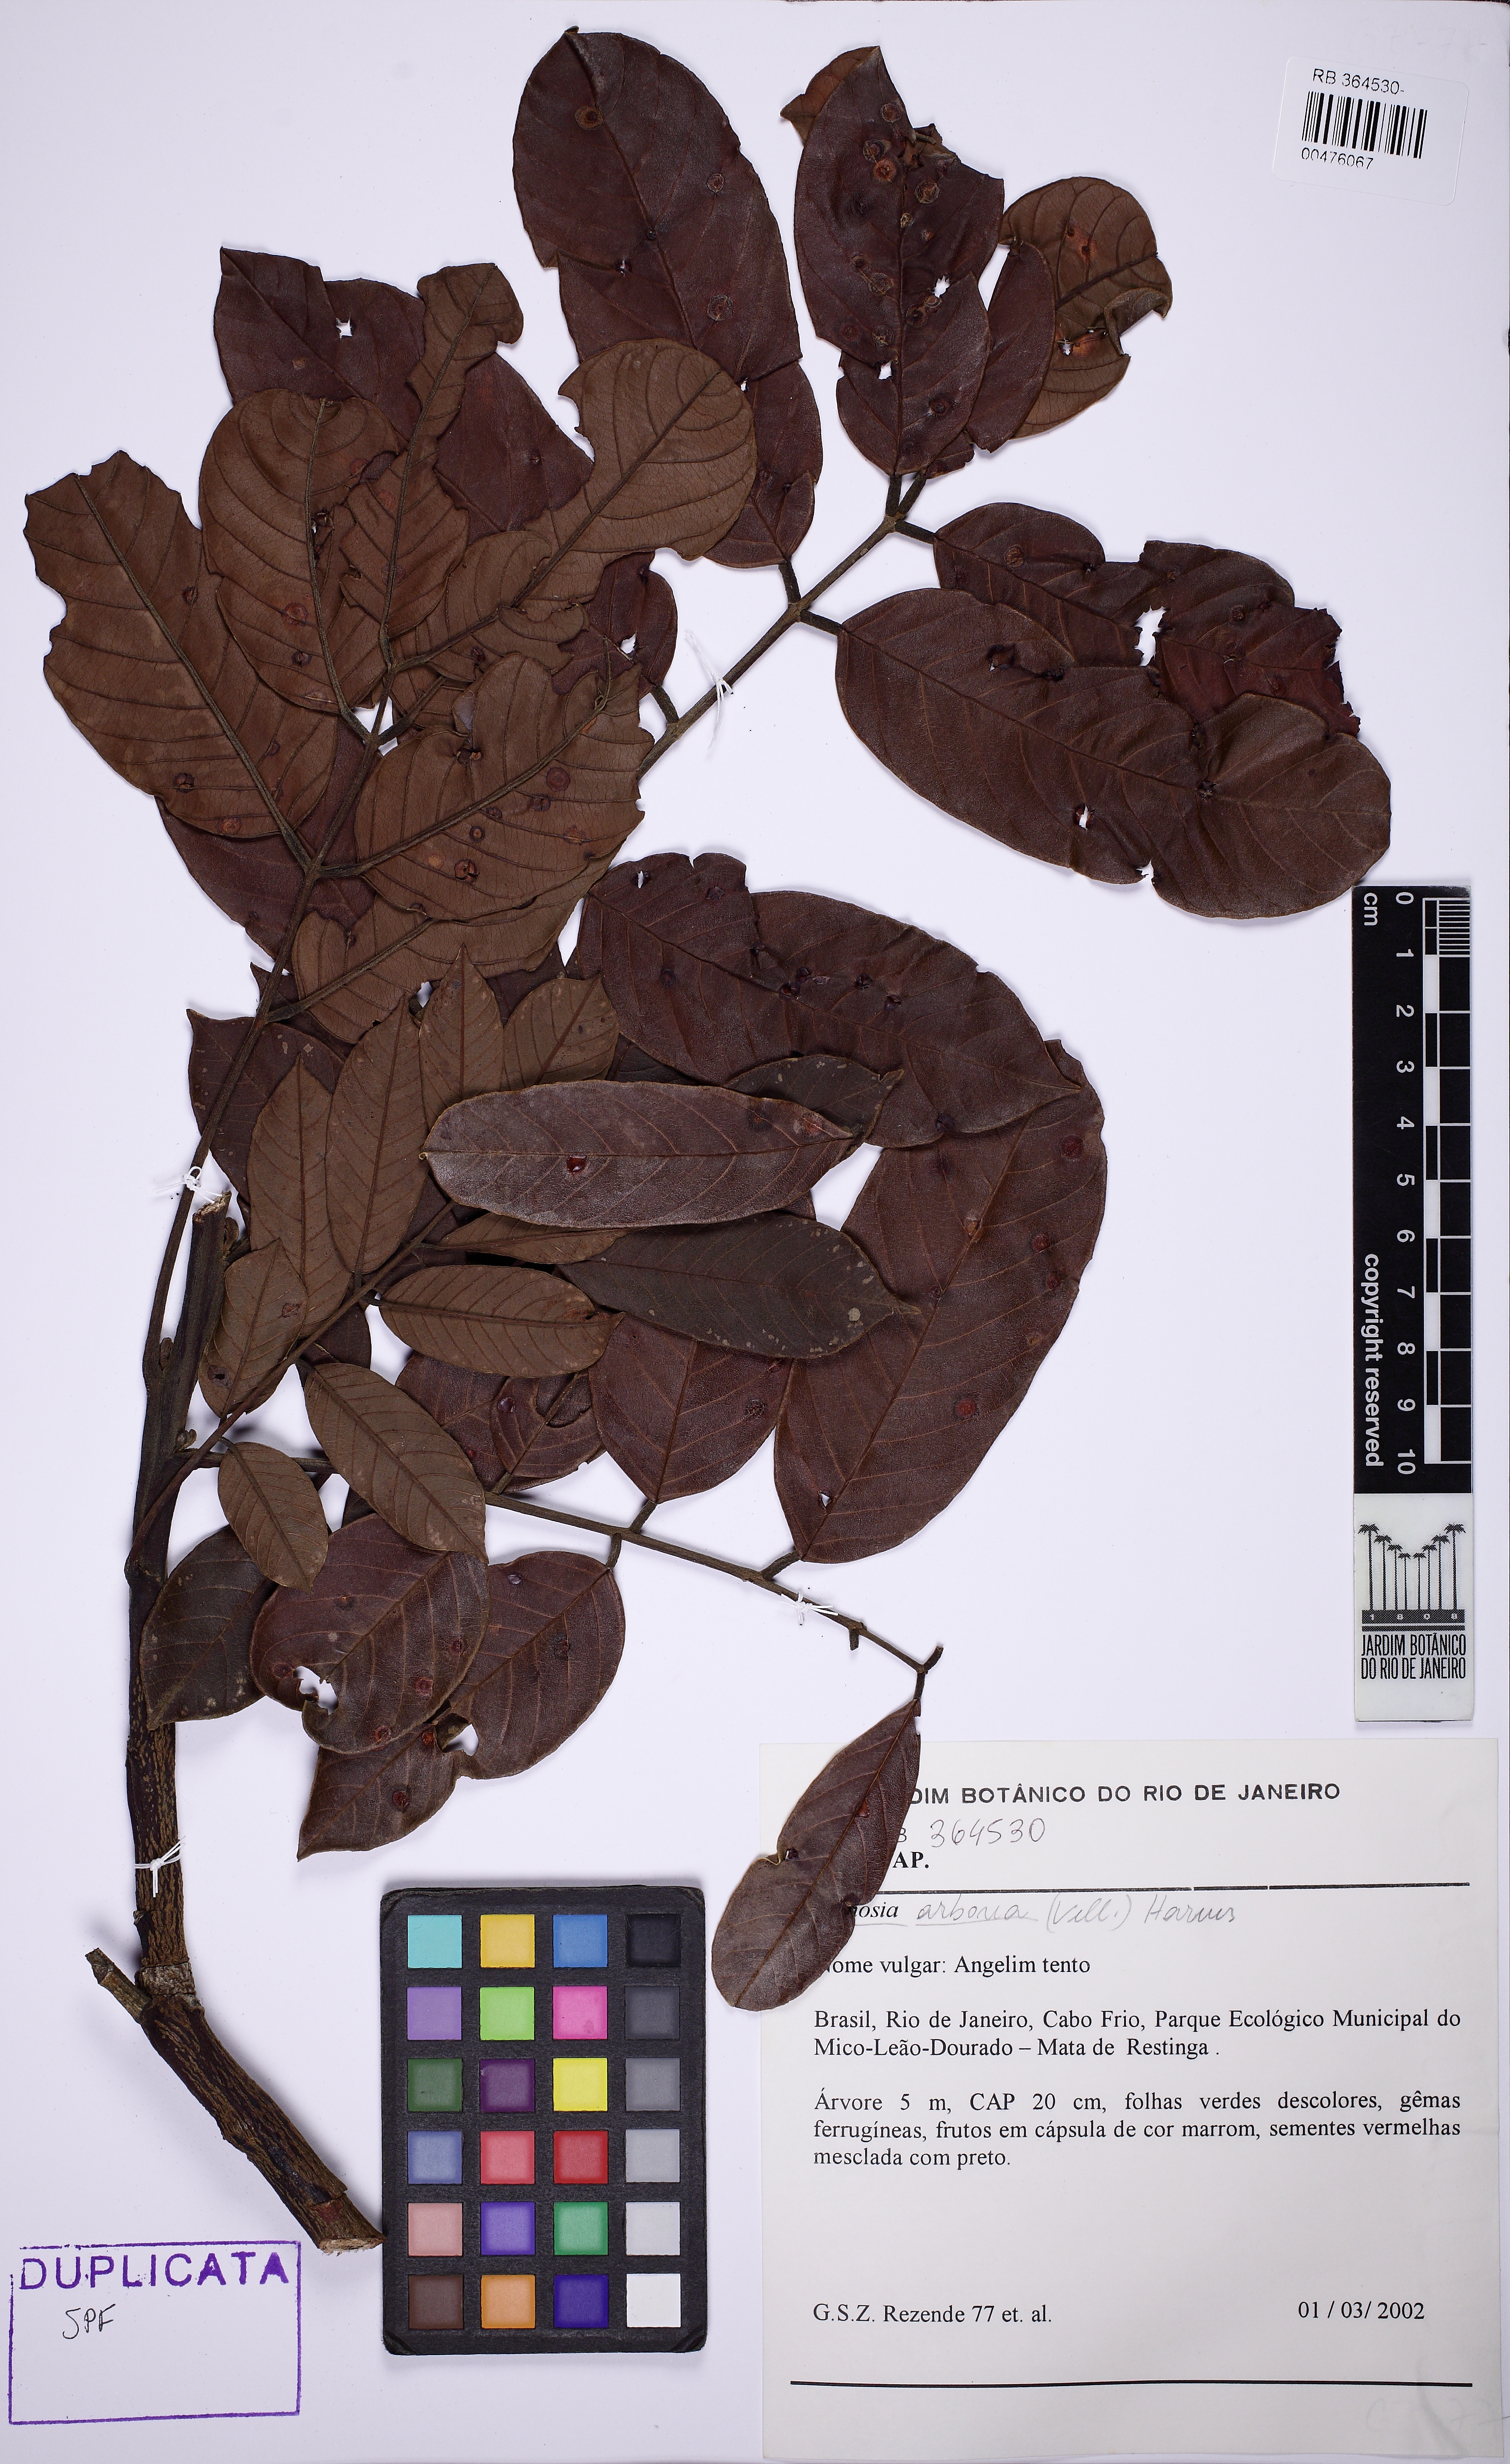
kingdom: Plantae
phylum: Tracheophyta
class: Magnoliopsida
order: Fabales
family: Fabaceae
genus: Ormosia
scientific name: Ormosia arborea
